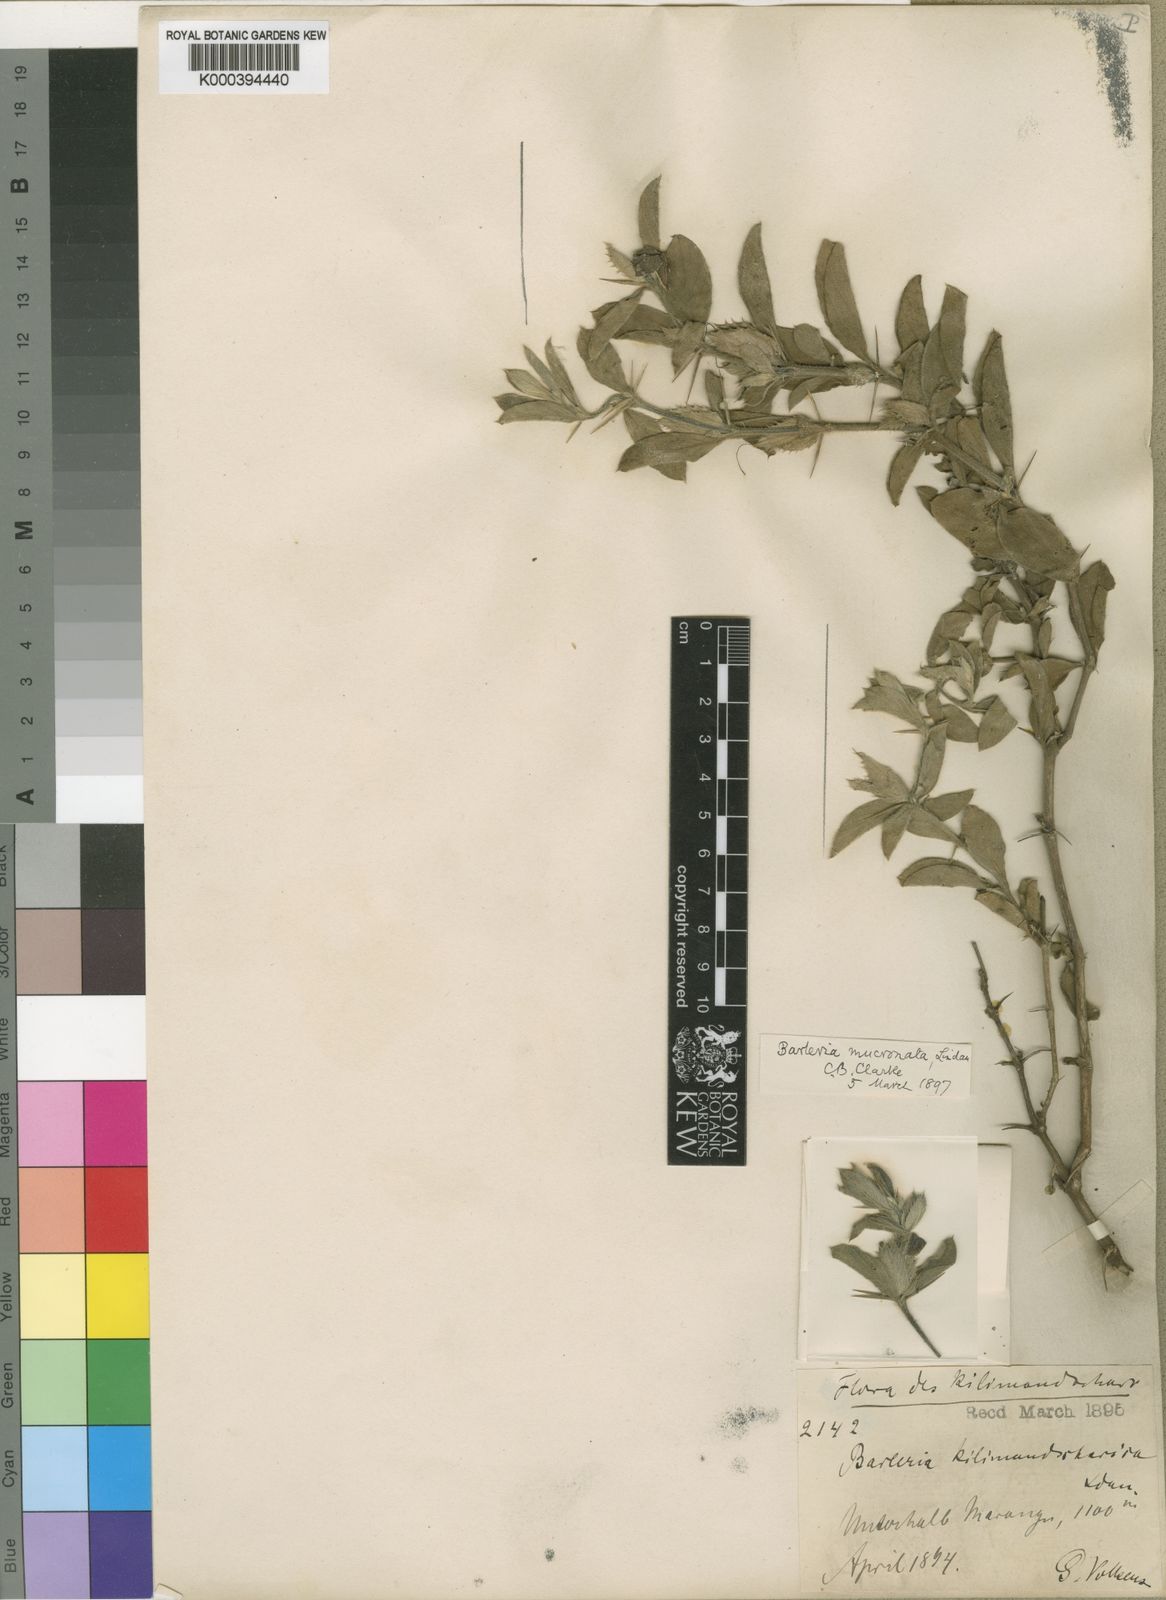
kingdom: Plantae
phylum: Tracheophyta
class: Magnoliopsida
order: Lamiales
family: Acanthaceae
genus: Barleria
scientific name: Barleria grandicalyx
